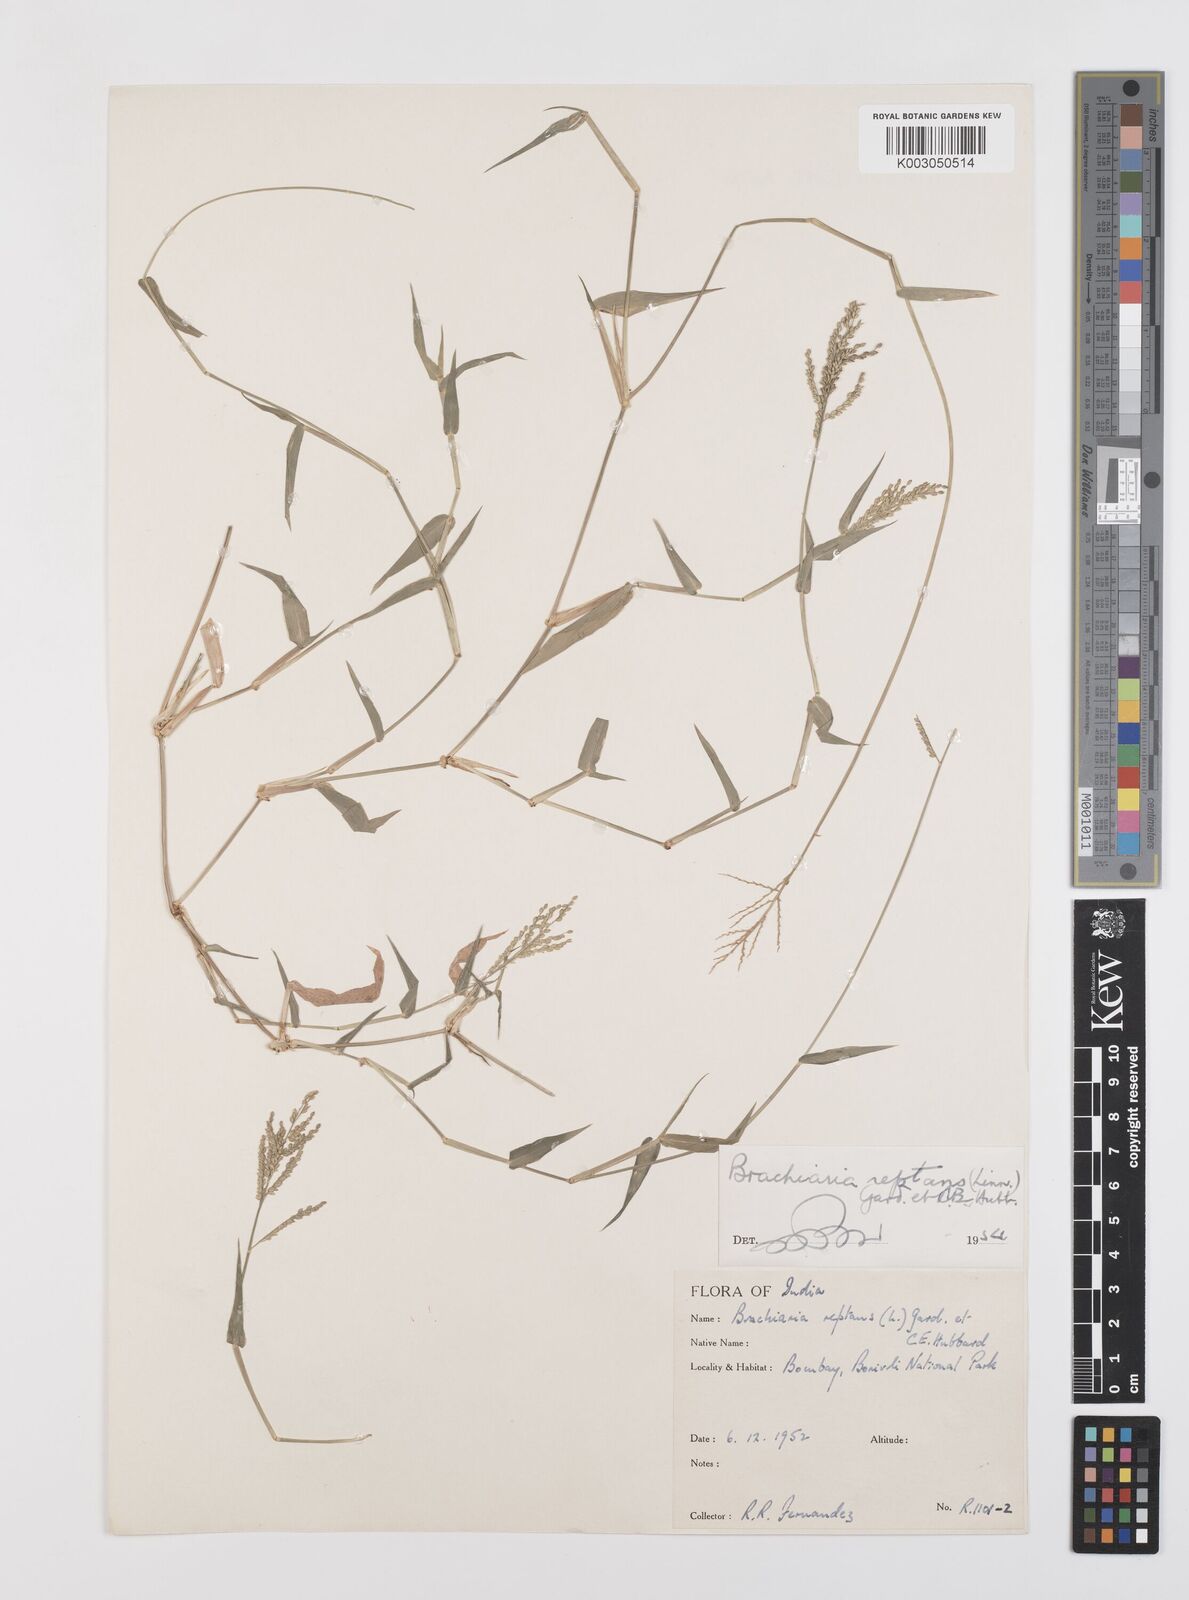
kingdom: Plantae
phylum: Tracheophyta
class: Liliopsida
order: Poales
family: Poaceae
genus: Urochloa
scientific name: Urochloa reptans
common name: Sprawling signalgrass
